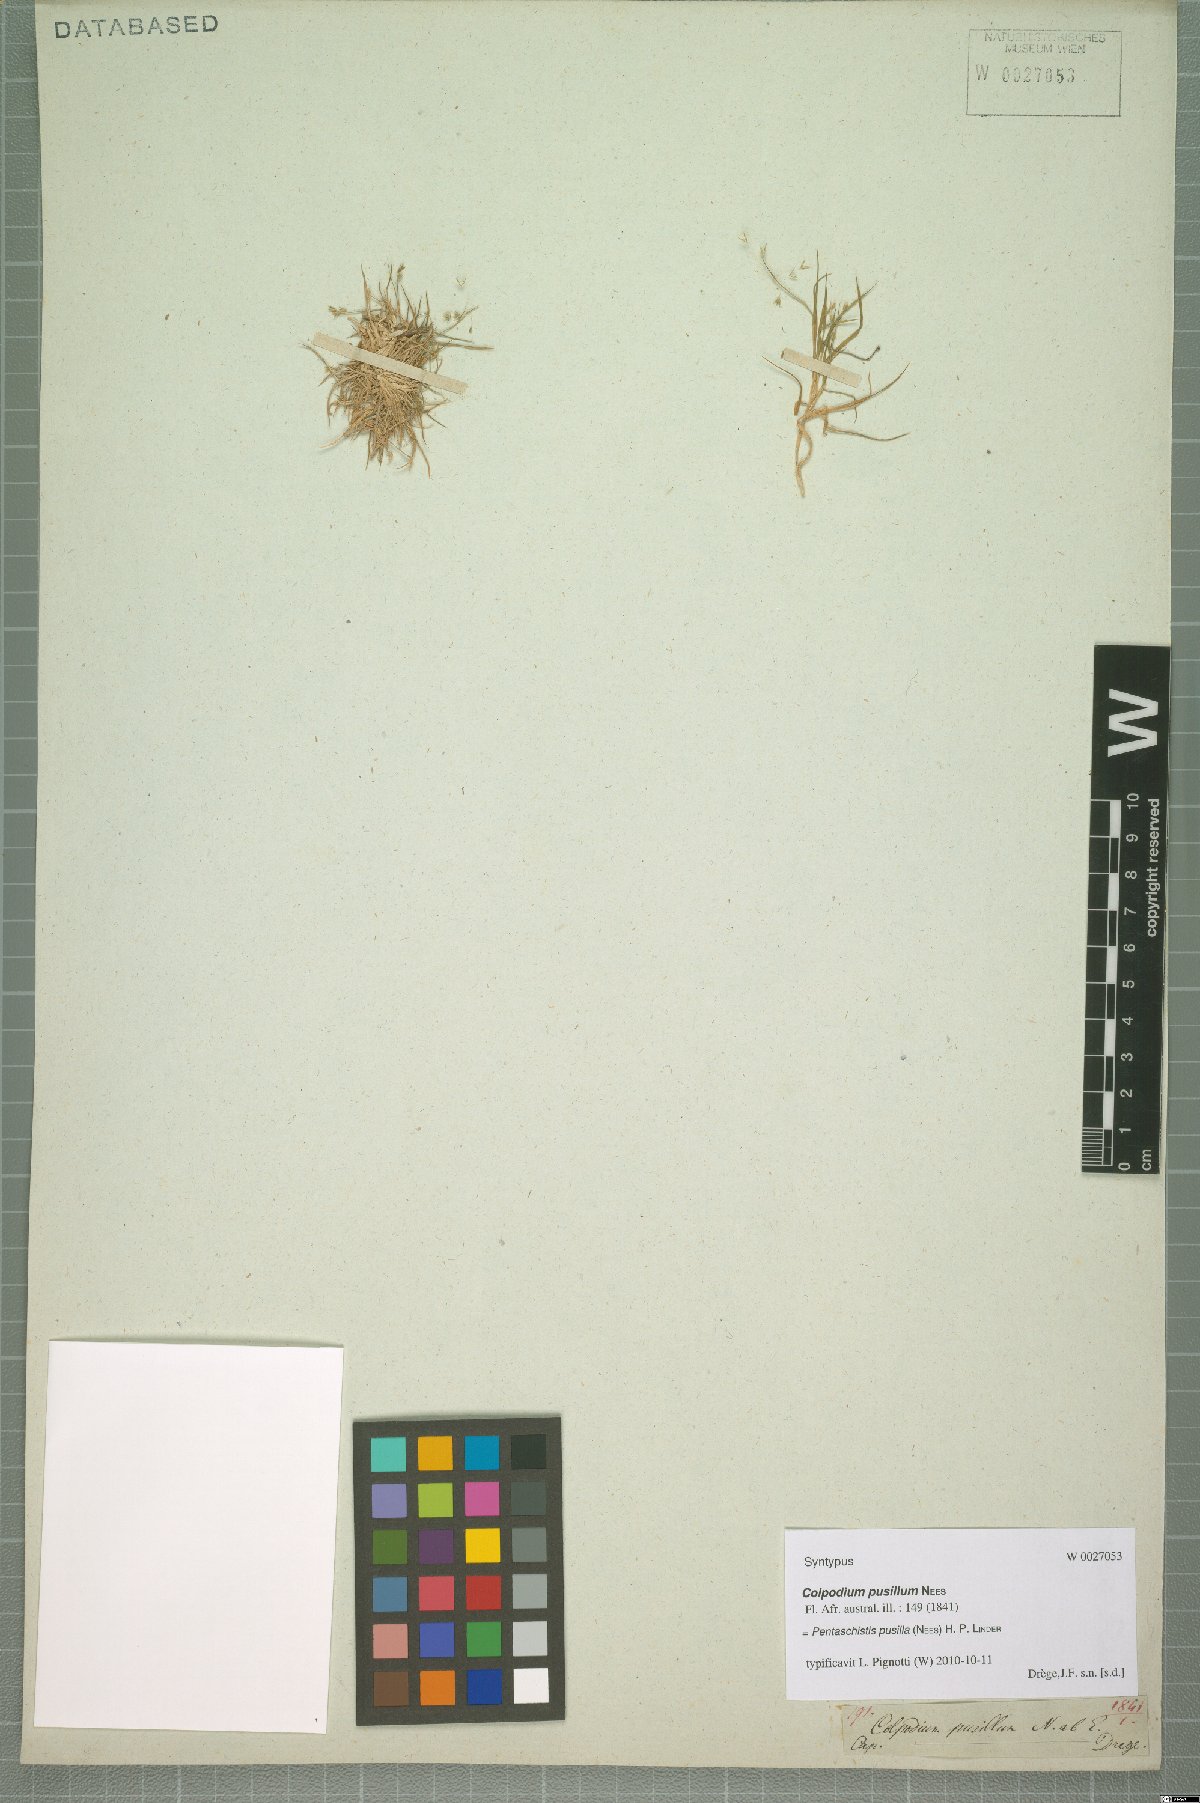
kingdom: Plantae
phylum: Tracheophyta
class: Liliopsida
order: Poales
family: Poaceae
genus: Pentameris
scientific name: Pentameris pusilla
